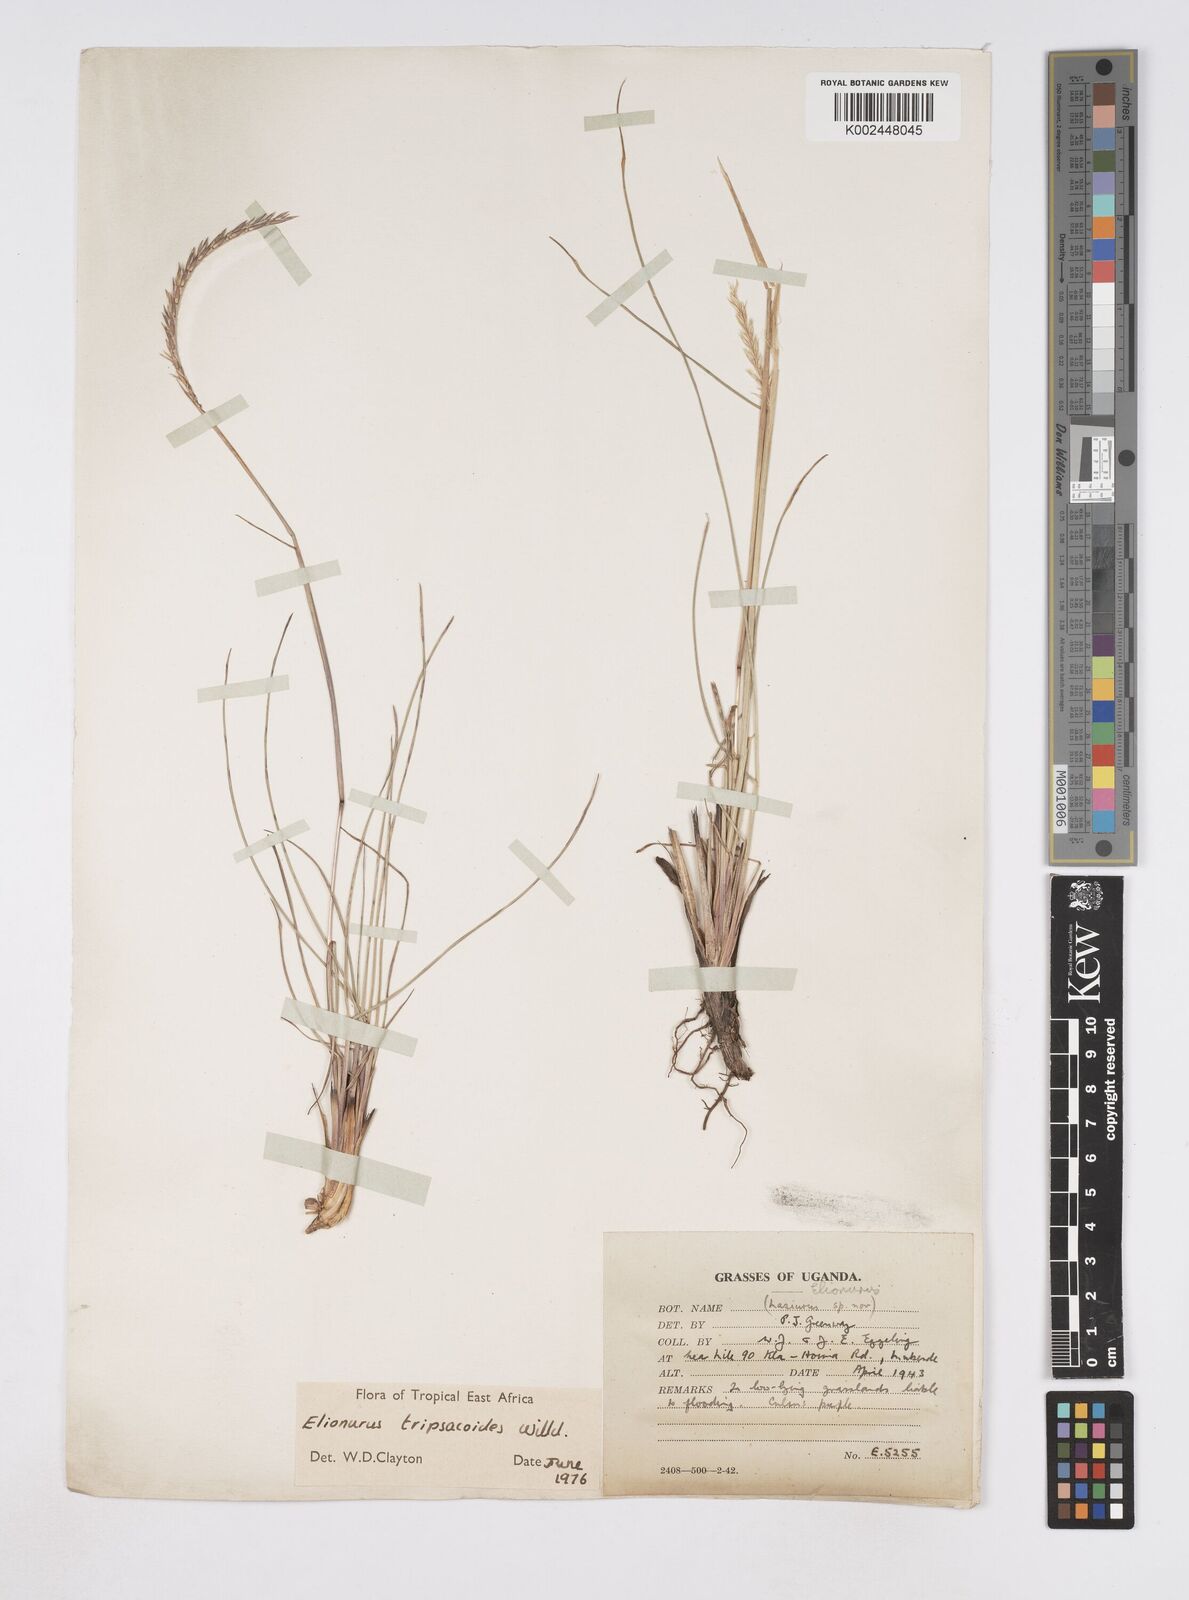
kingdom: Plantae
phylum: Tracheophyta
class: Liliopsida
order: Poales
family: Poaceae
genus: Elionurus
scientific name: Elionurus tripsacoides
